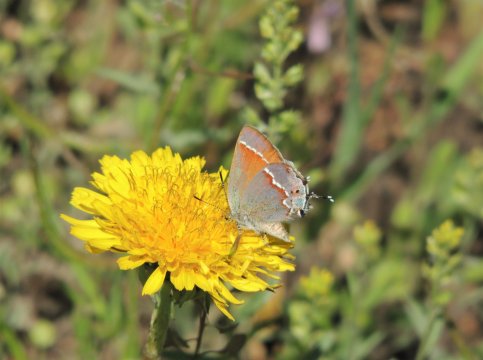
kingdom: Animalia
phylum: Arthropoda
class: Insecta
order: Lepidoptera
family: Lycaenidae
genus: Mitoura
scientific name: Mitoura gryneus
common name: Juniper Hairstreak
